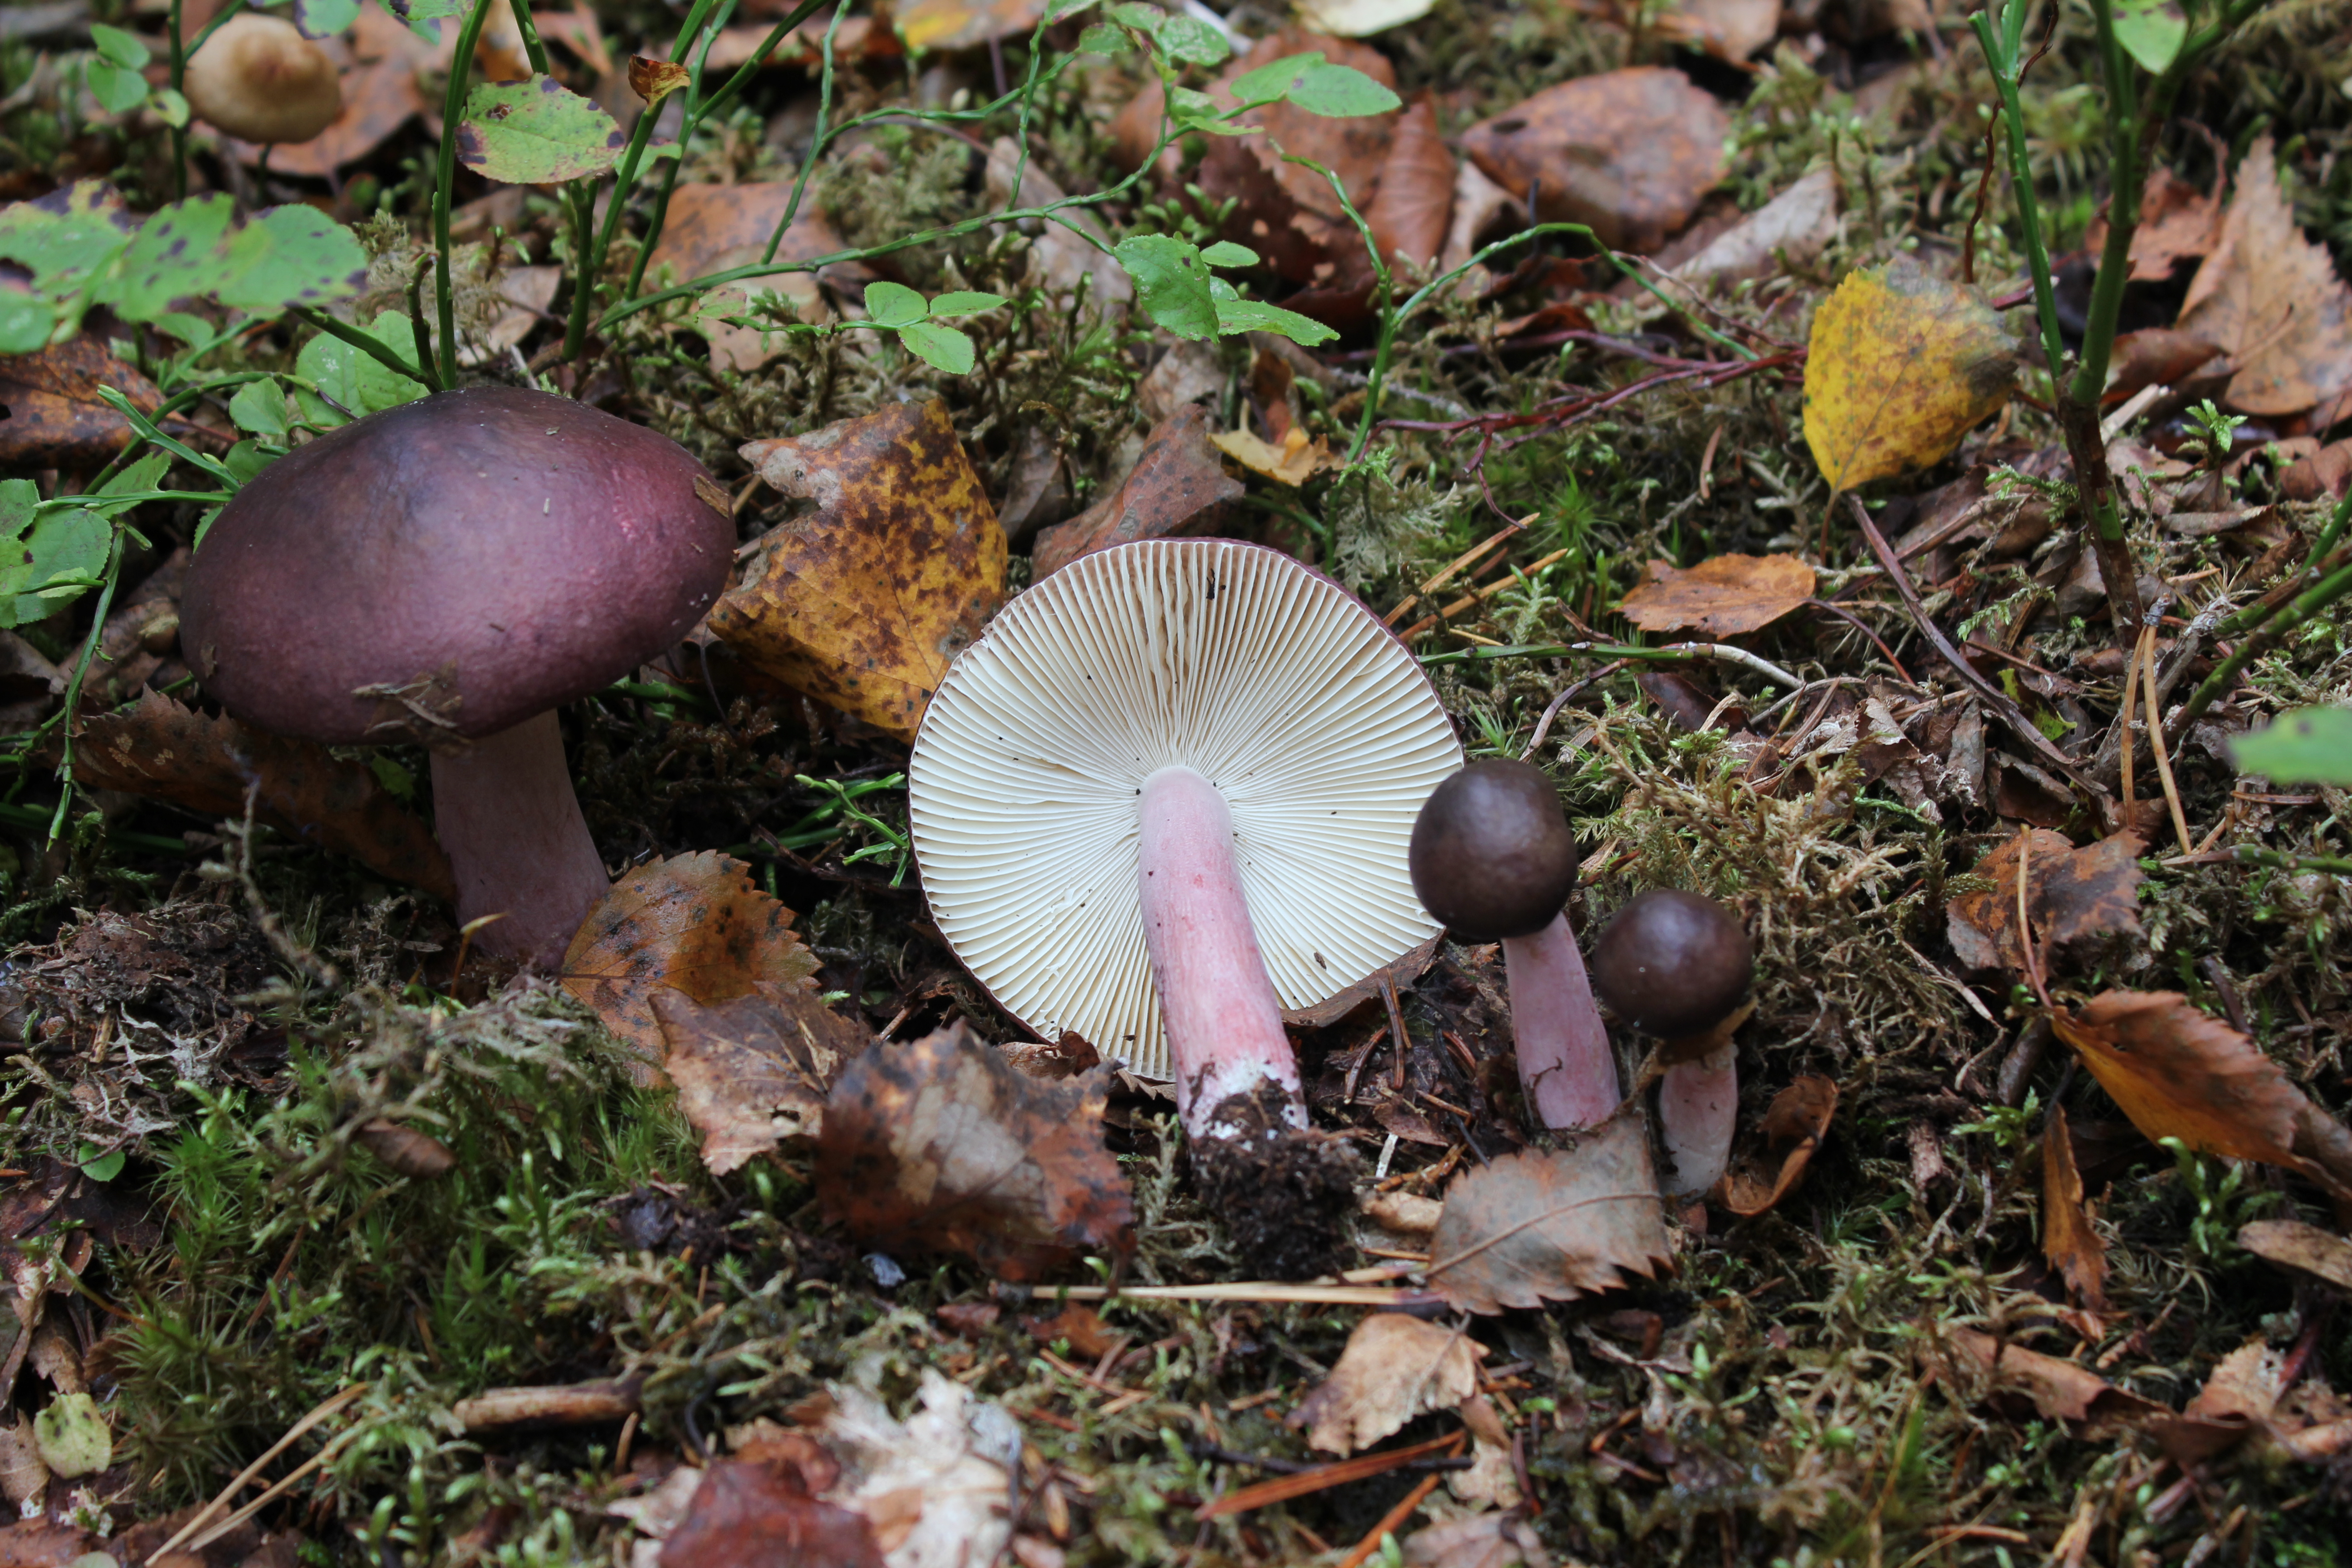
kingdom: Fungi
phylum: Basidiomycota
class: Agaricomycetes
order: Russulales
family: Russulaceae
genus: Russula
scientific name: Russula queletii
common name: Fruity brittlegill
